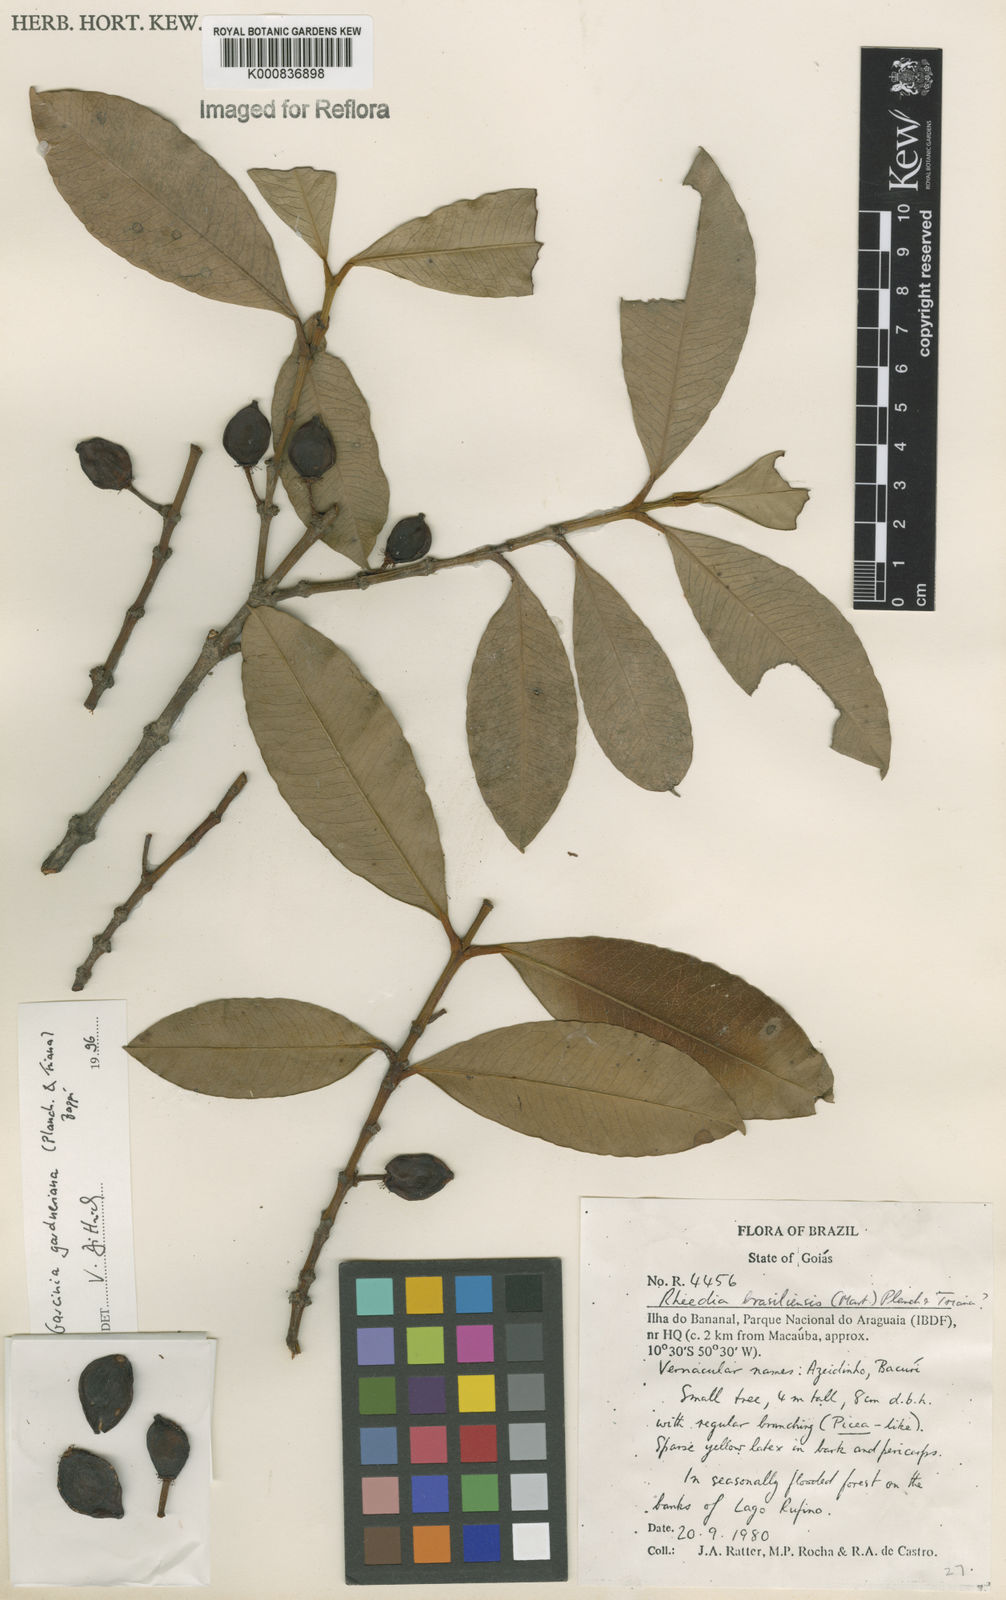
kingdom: Plantae
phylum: Tracheophyta
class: Magnoliopsida
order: Malpighiales
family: Clusiaceae
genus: Garcinia
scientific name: Garcinia gardneriana
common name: Achacha
